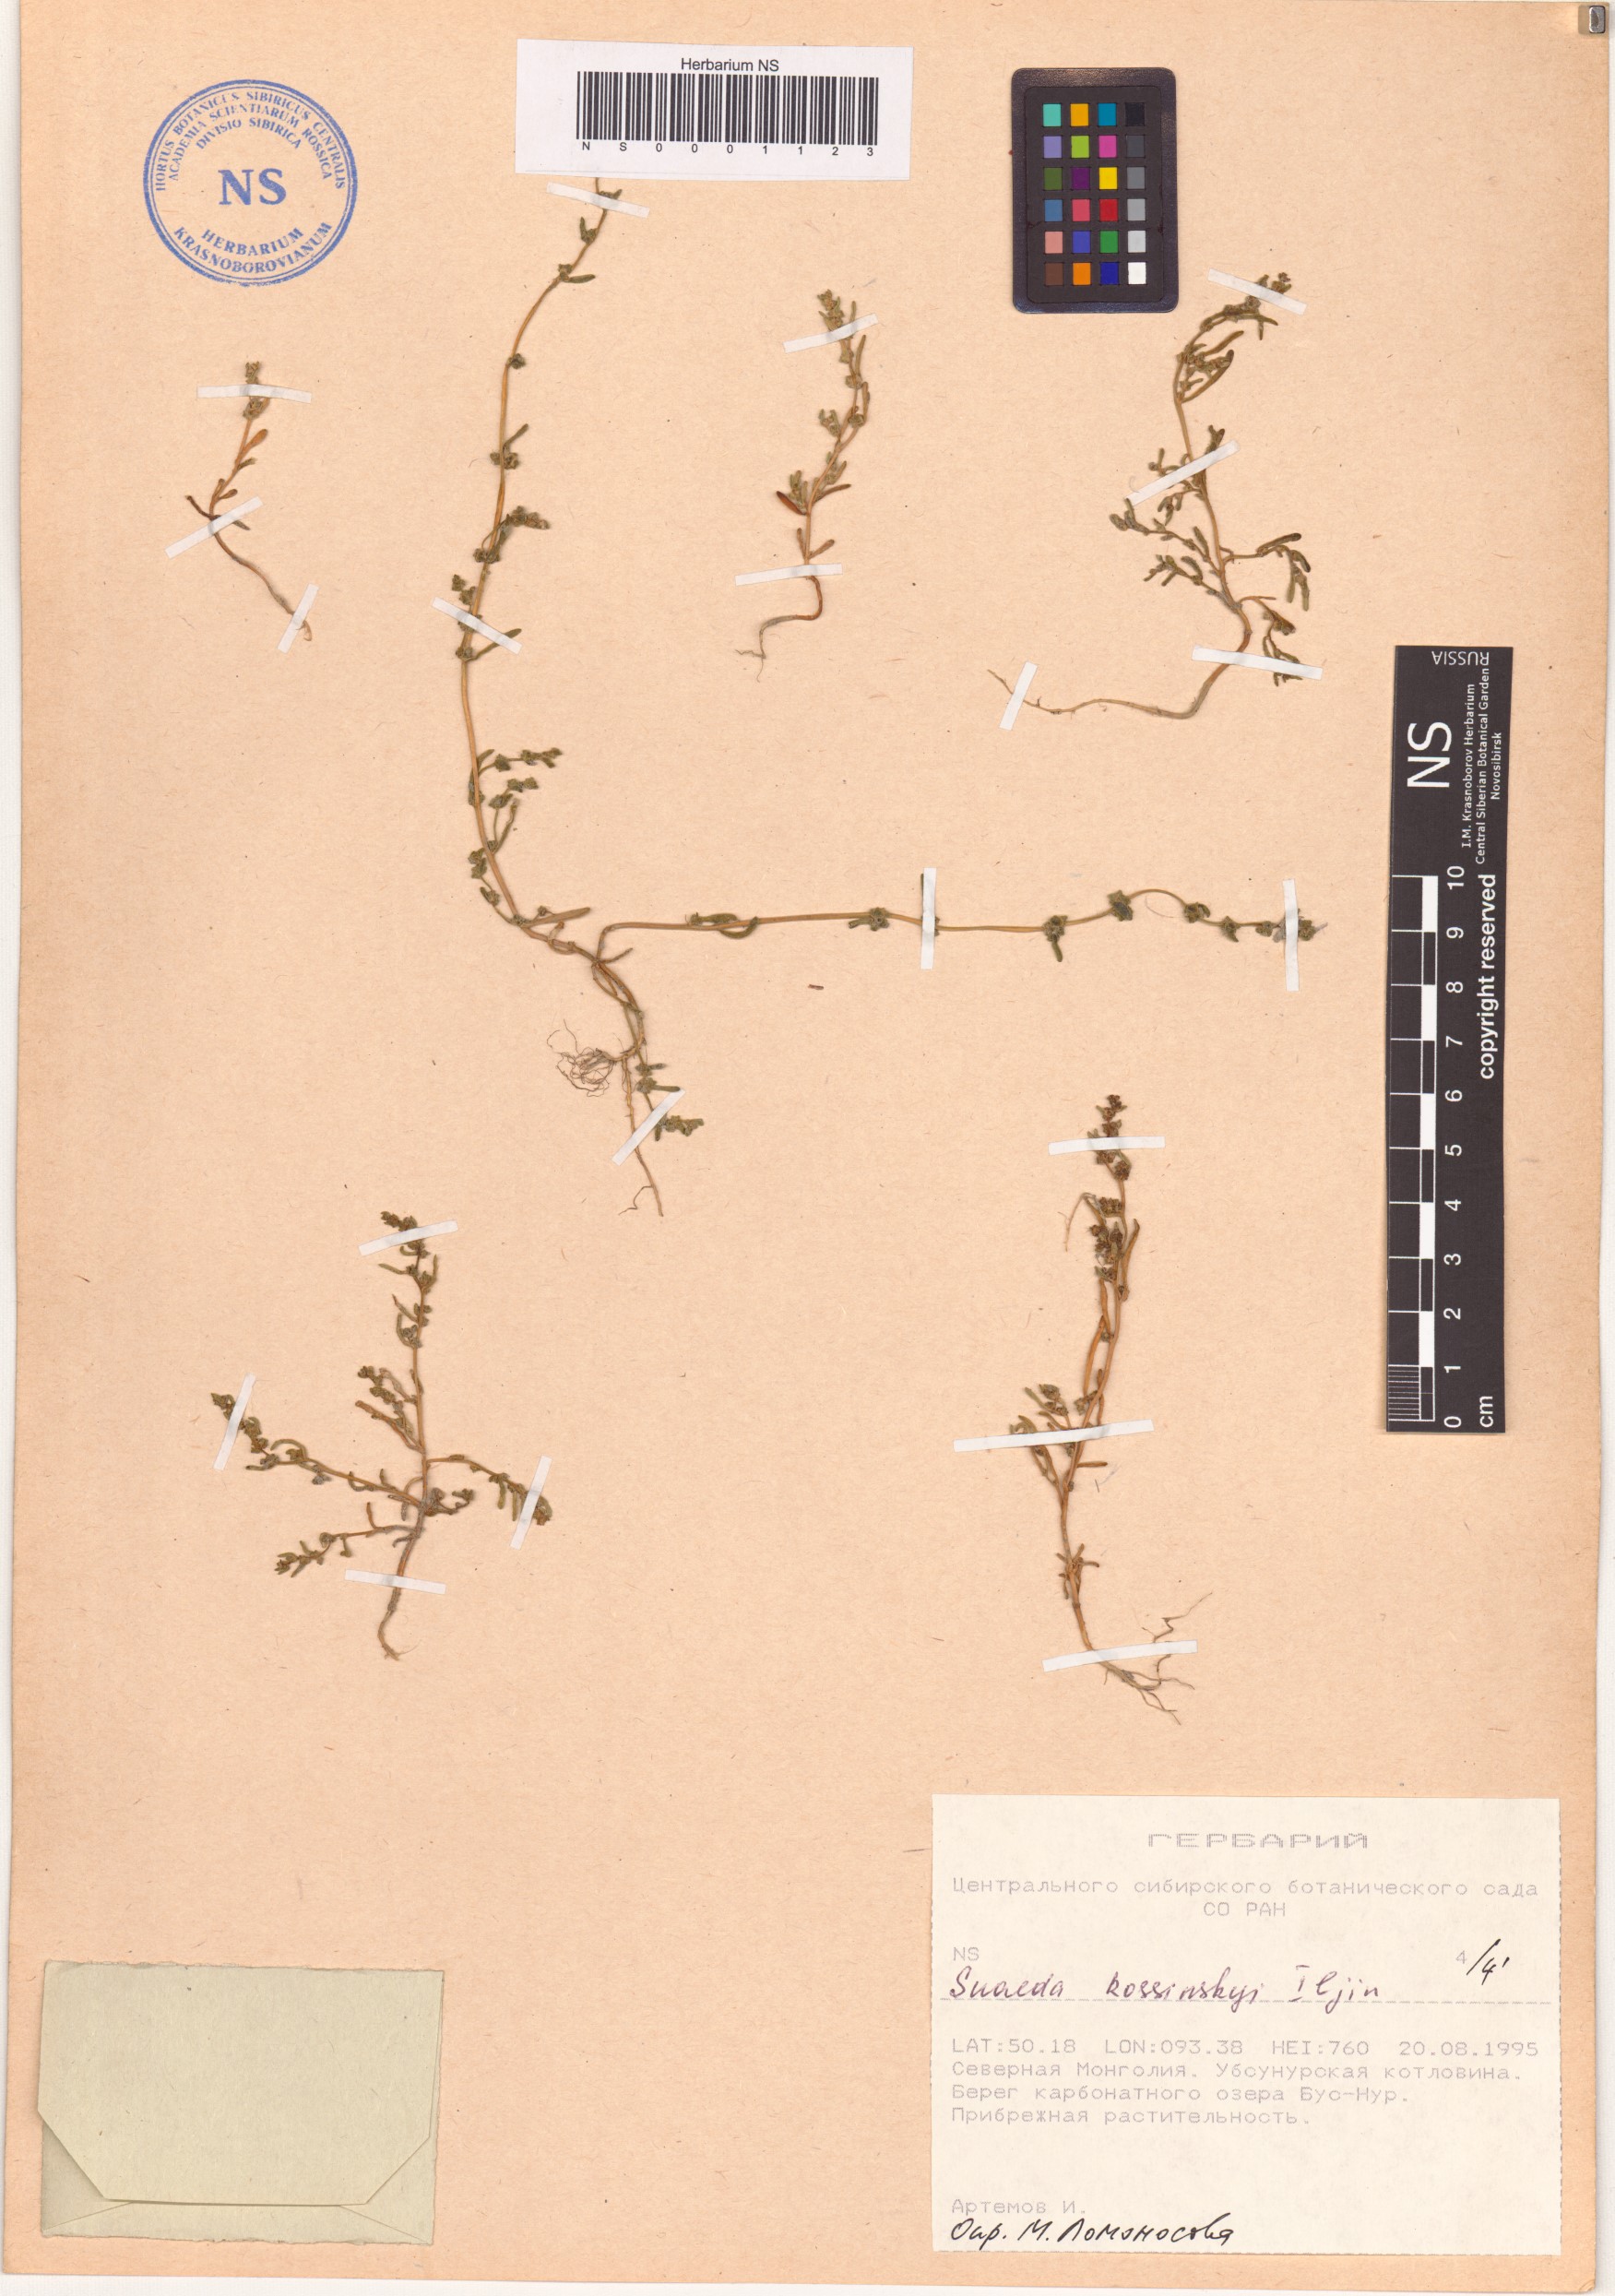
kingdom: Plantae
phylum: Tracheophyta
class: Magnoliopsida
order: Caryophyllales
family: Amaranthaceae
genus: Suaeda
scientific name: Suaeda kossinskyi
